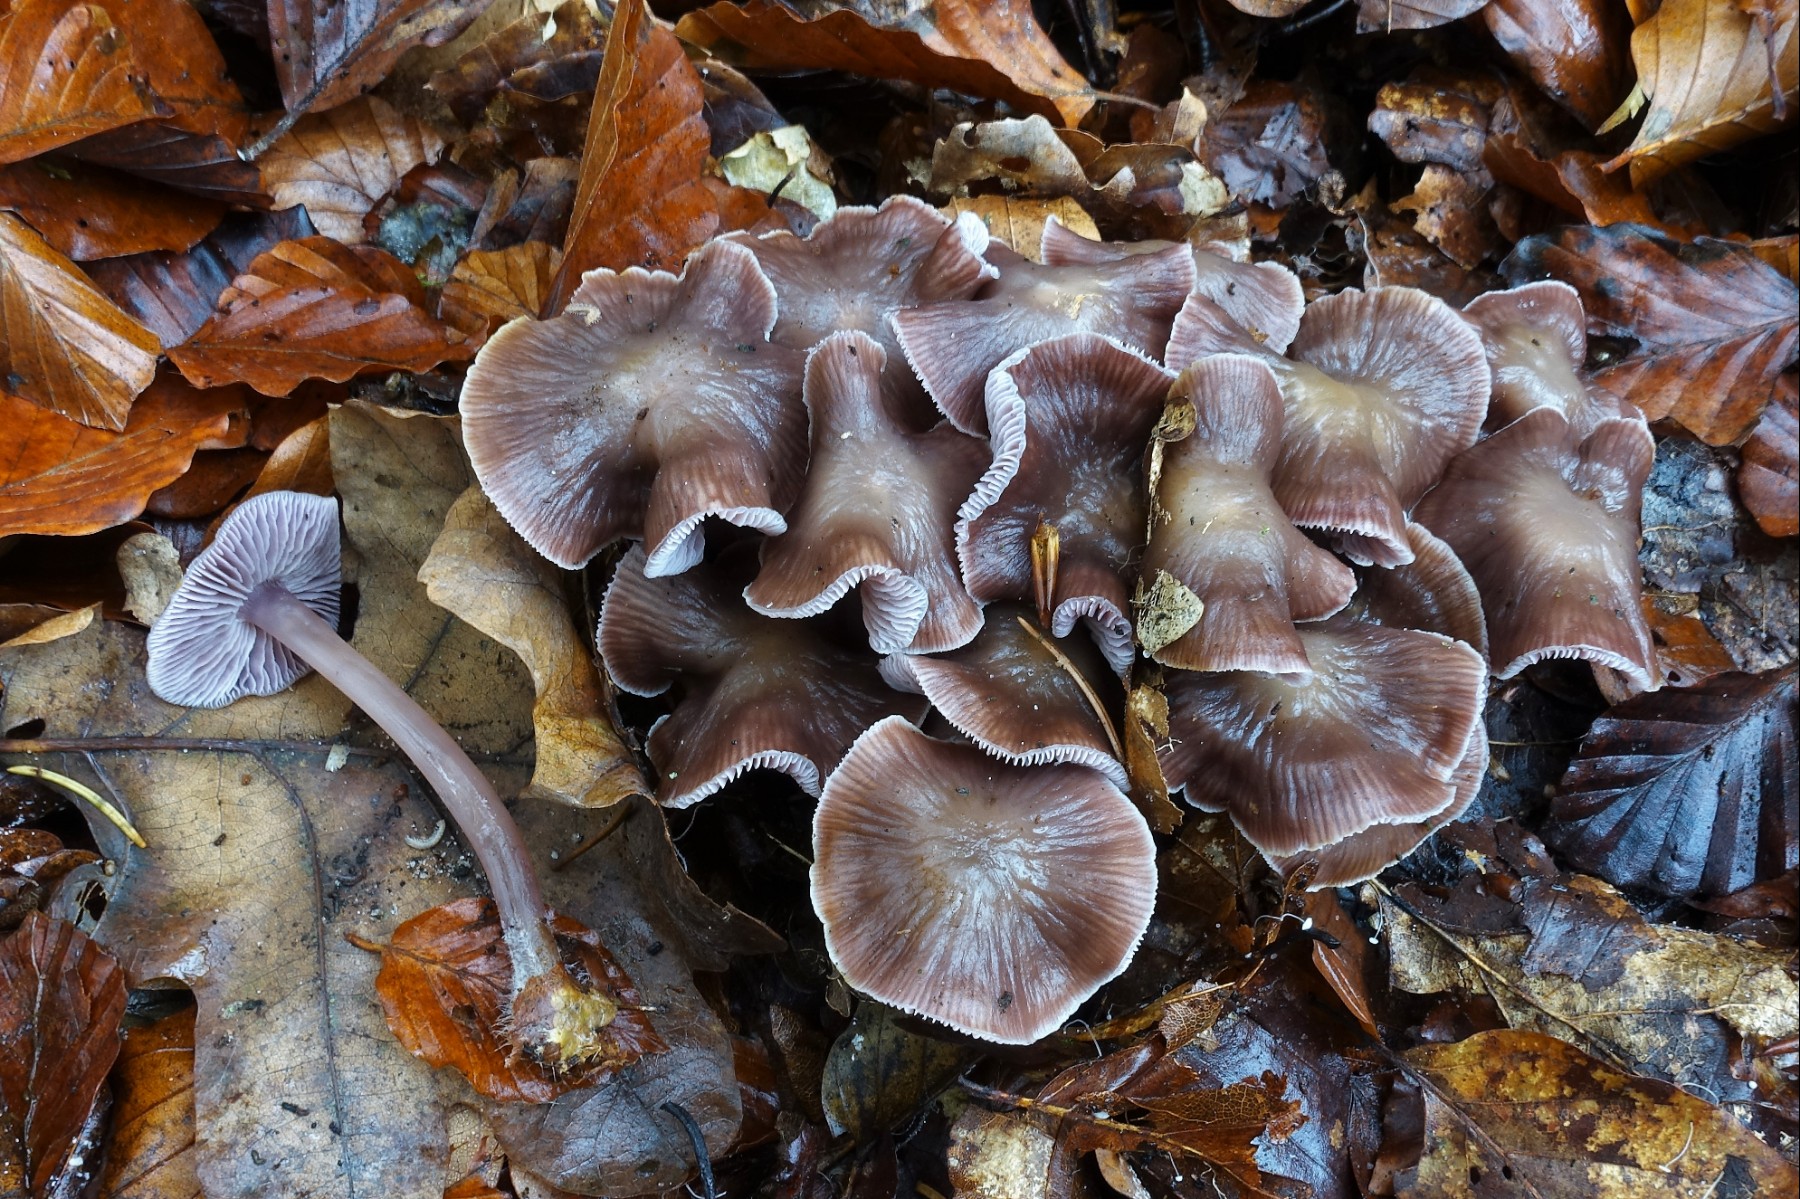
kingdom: Fungi
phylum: Basidiomycota
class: Agaricomycetes
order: Agaricales
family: Mycenaceae
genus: Prunulus
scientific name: Prunulus diosmus
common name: tobaks-huesvamp
